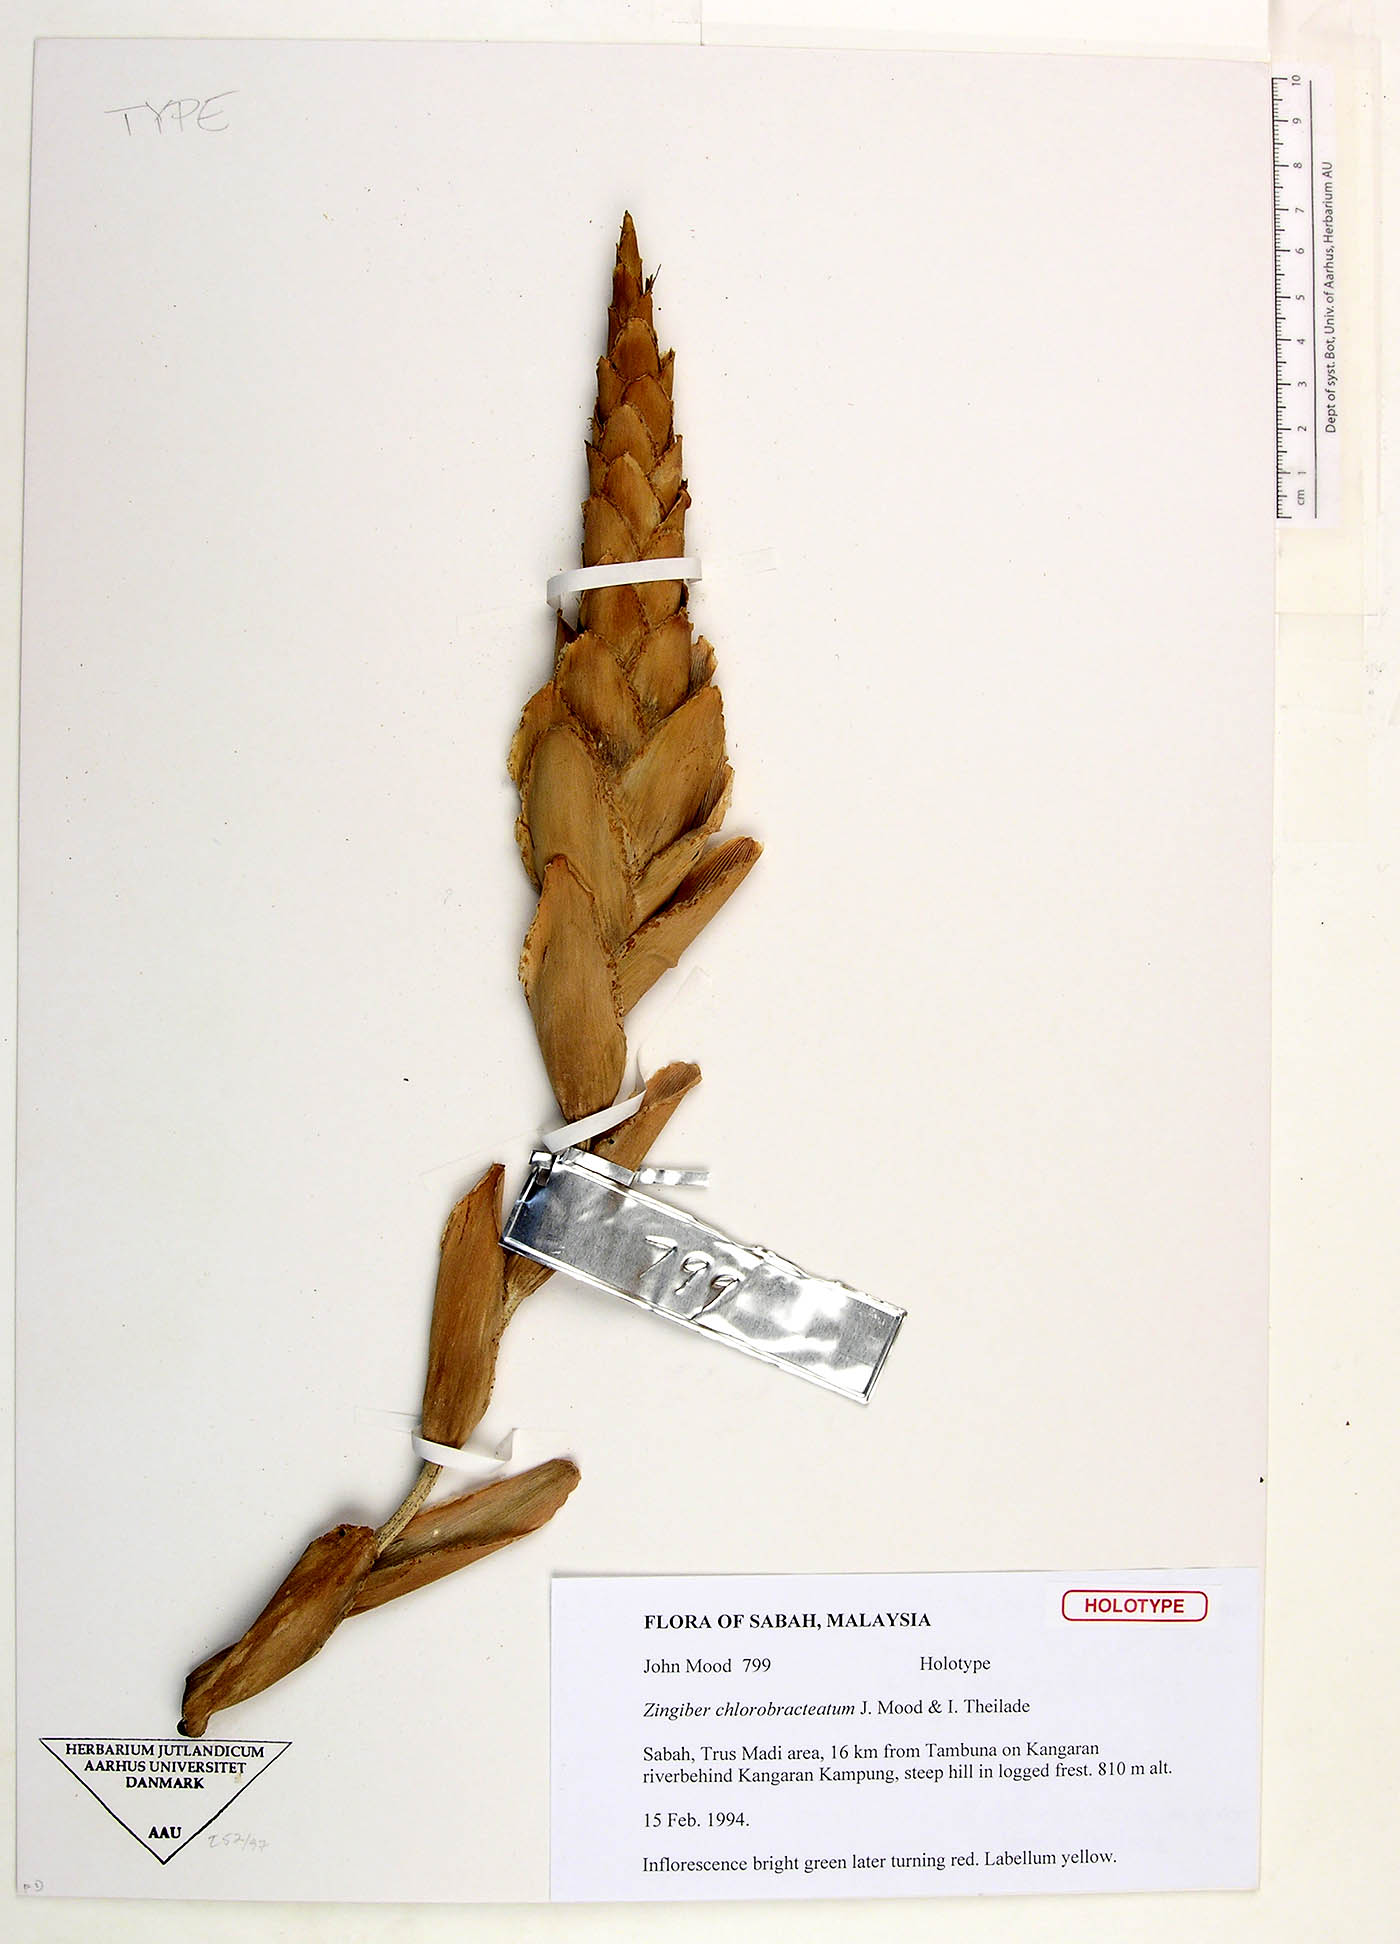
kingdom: Plantae
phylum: Tracheophyta
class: Liliopsida
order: Zingiberales
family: Zingiberaceae
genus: Zingiber
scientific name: Zingiber chlorobracteatum
